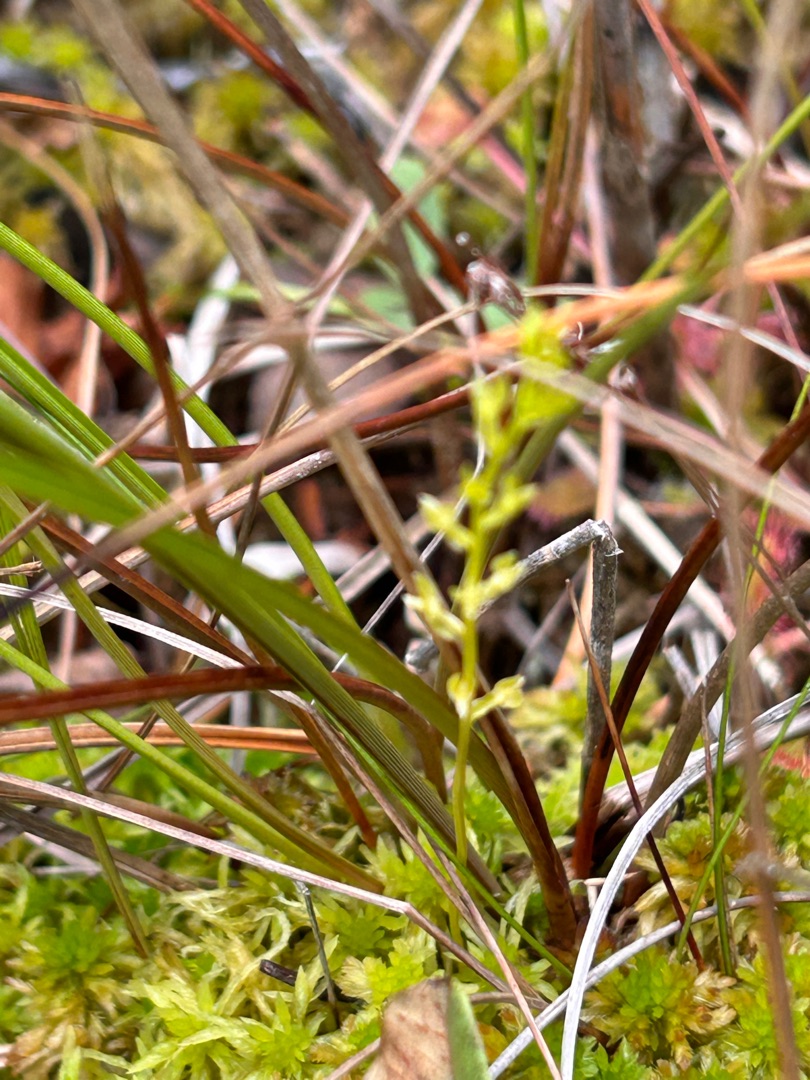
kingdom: Plantae
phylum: Tracheophyta
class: Liliopsida
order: Asparagales
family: Orchidaceae
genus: Hammarbya
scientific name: Hammarbya paludosa
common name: Hjertelæbe
